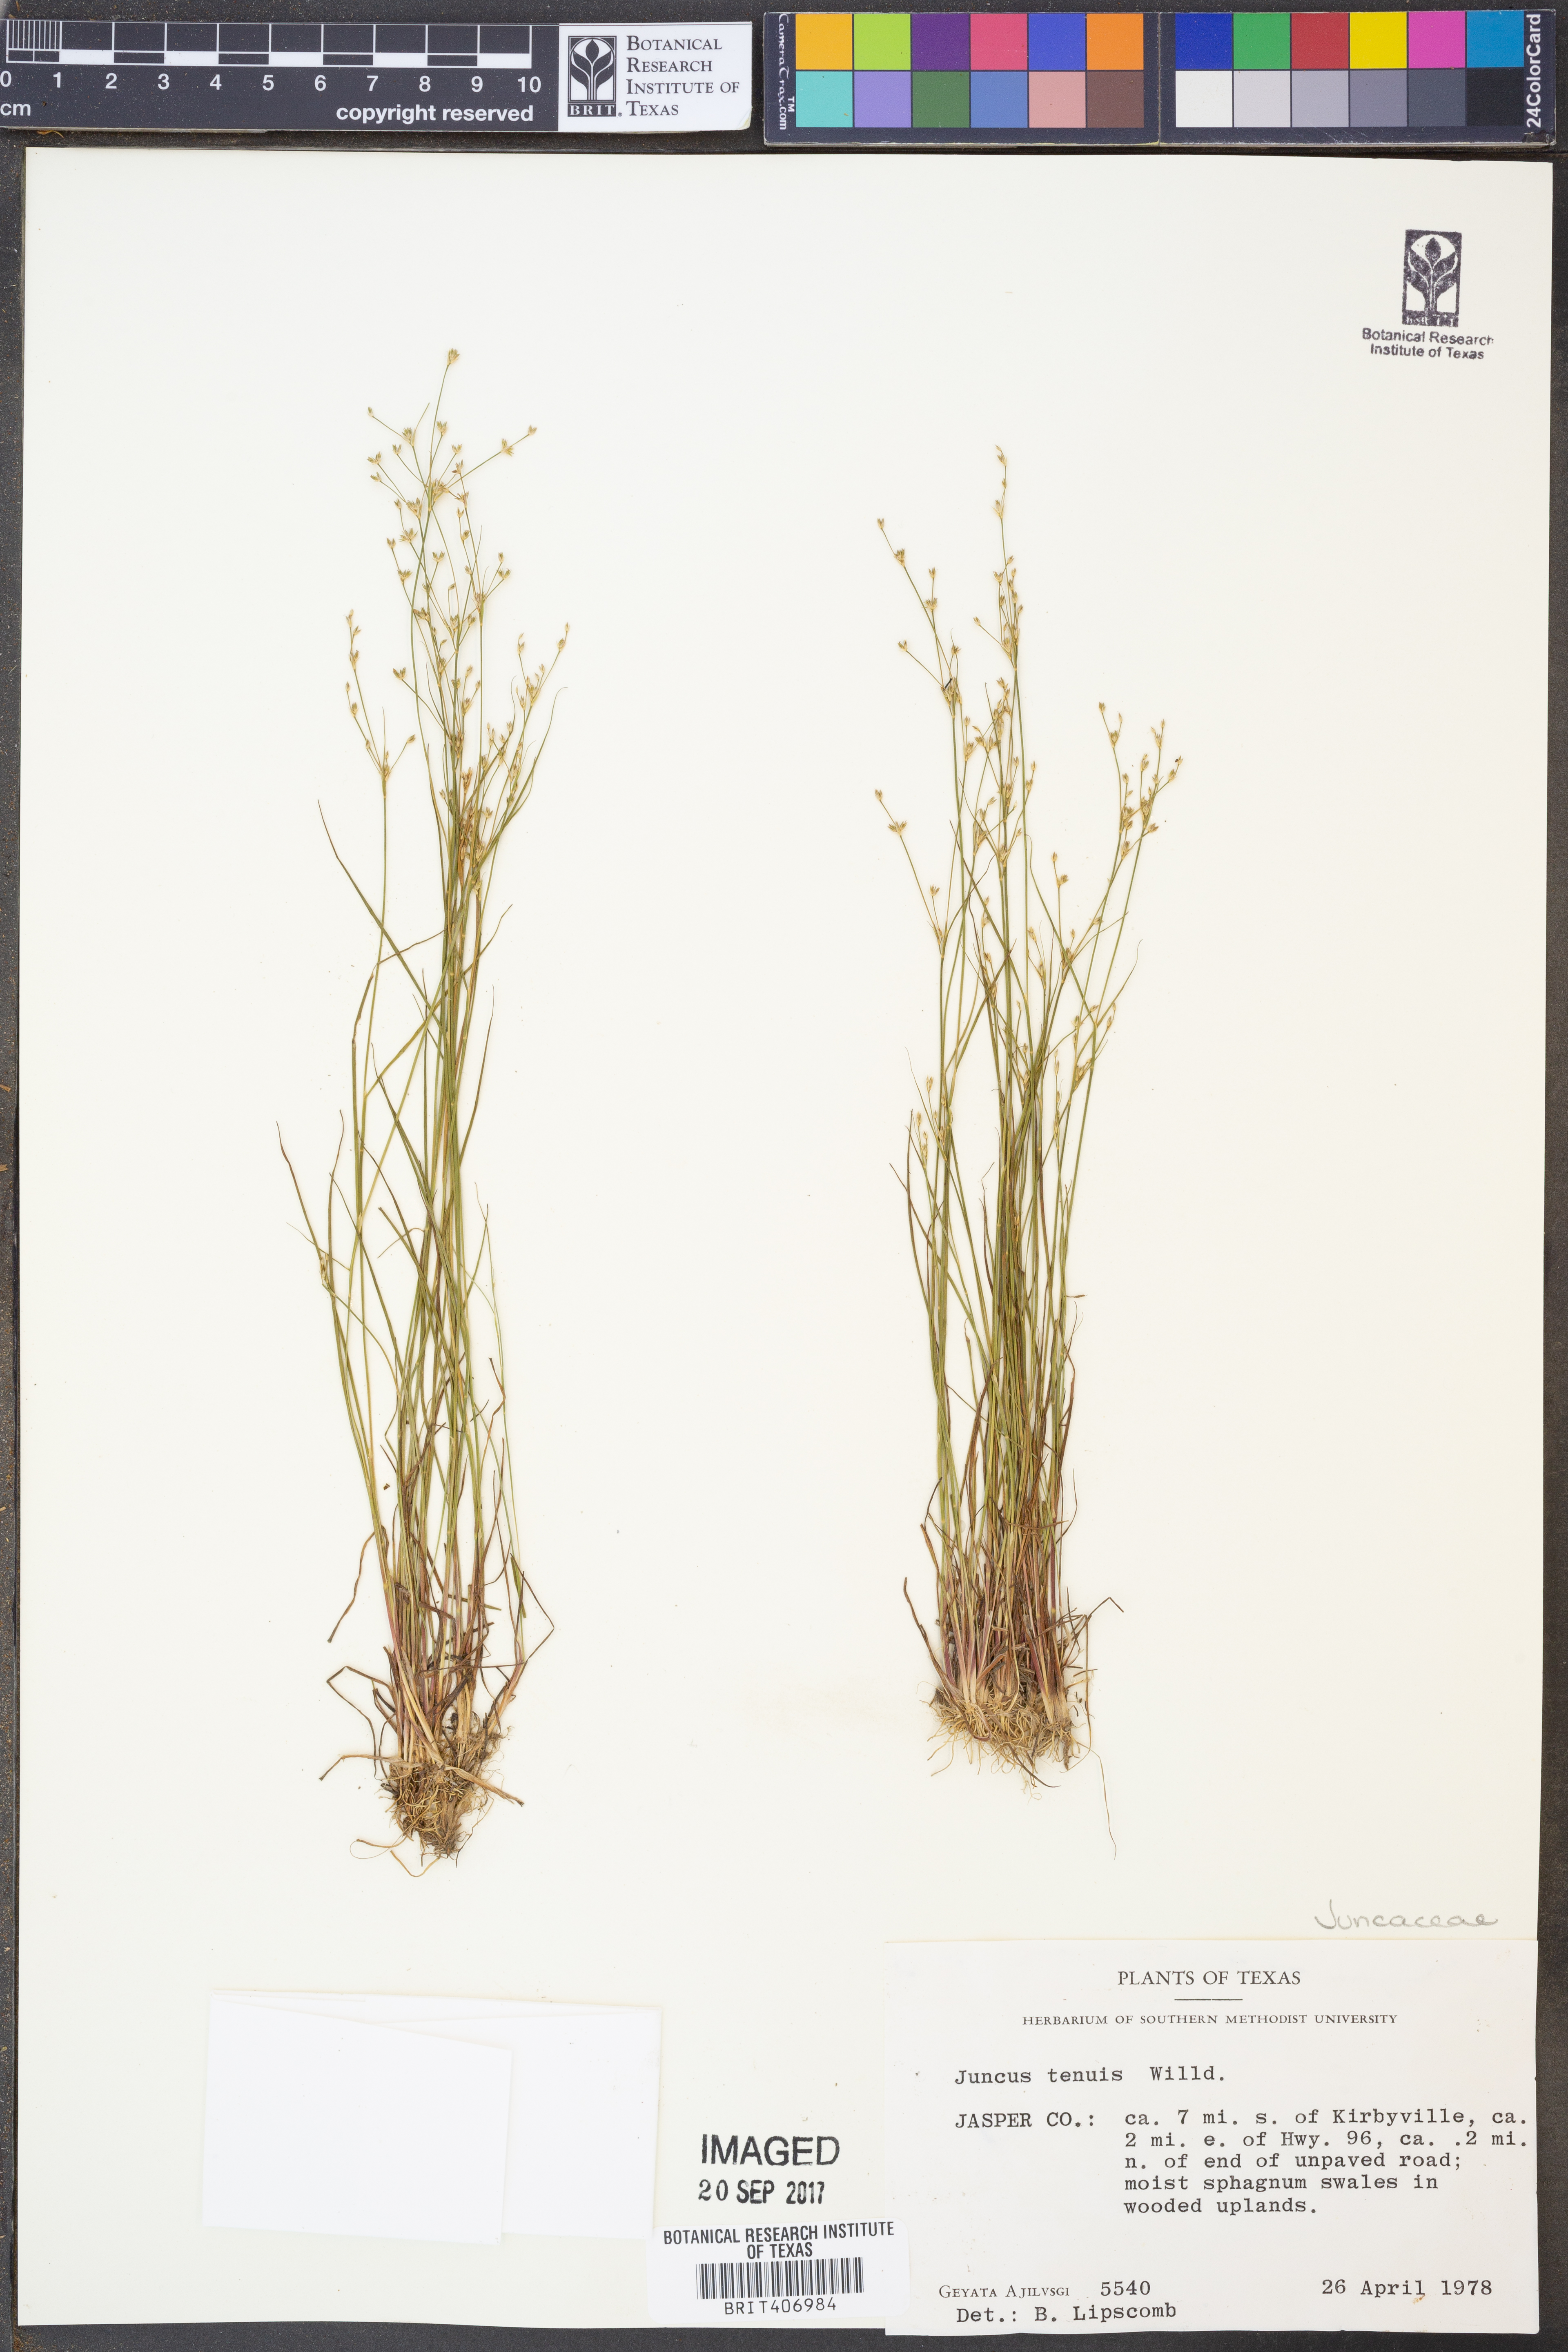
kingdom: Plantae
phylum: Tracheophyta
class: Liliopsida
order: Poales
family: Juncaceae
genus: Juncus
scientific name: Juncus tenuis
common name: Slender rush
